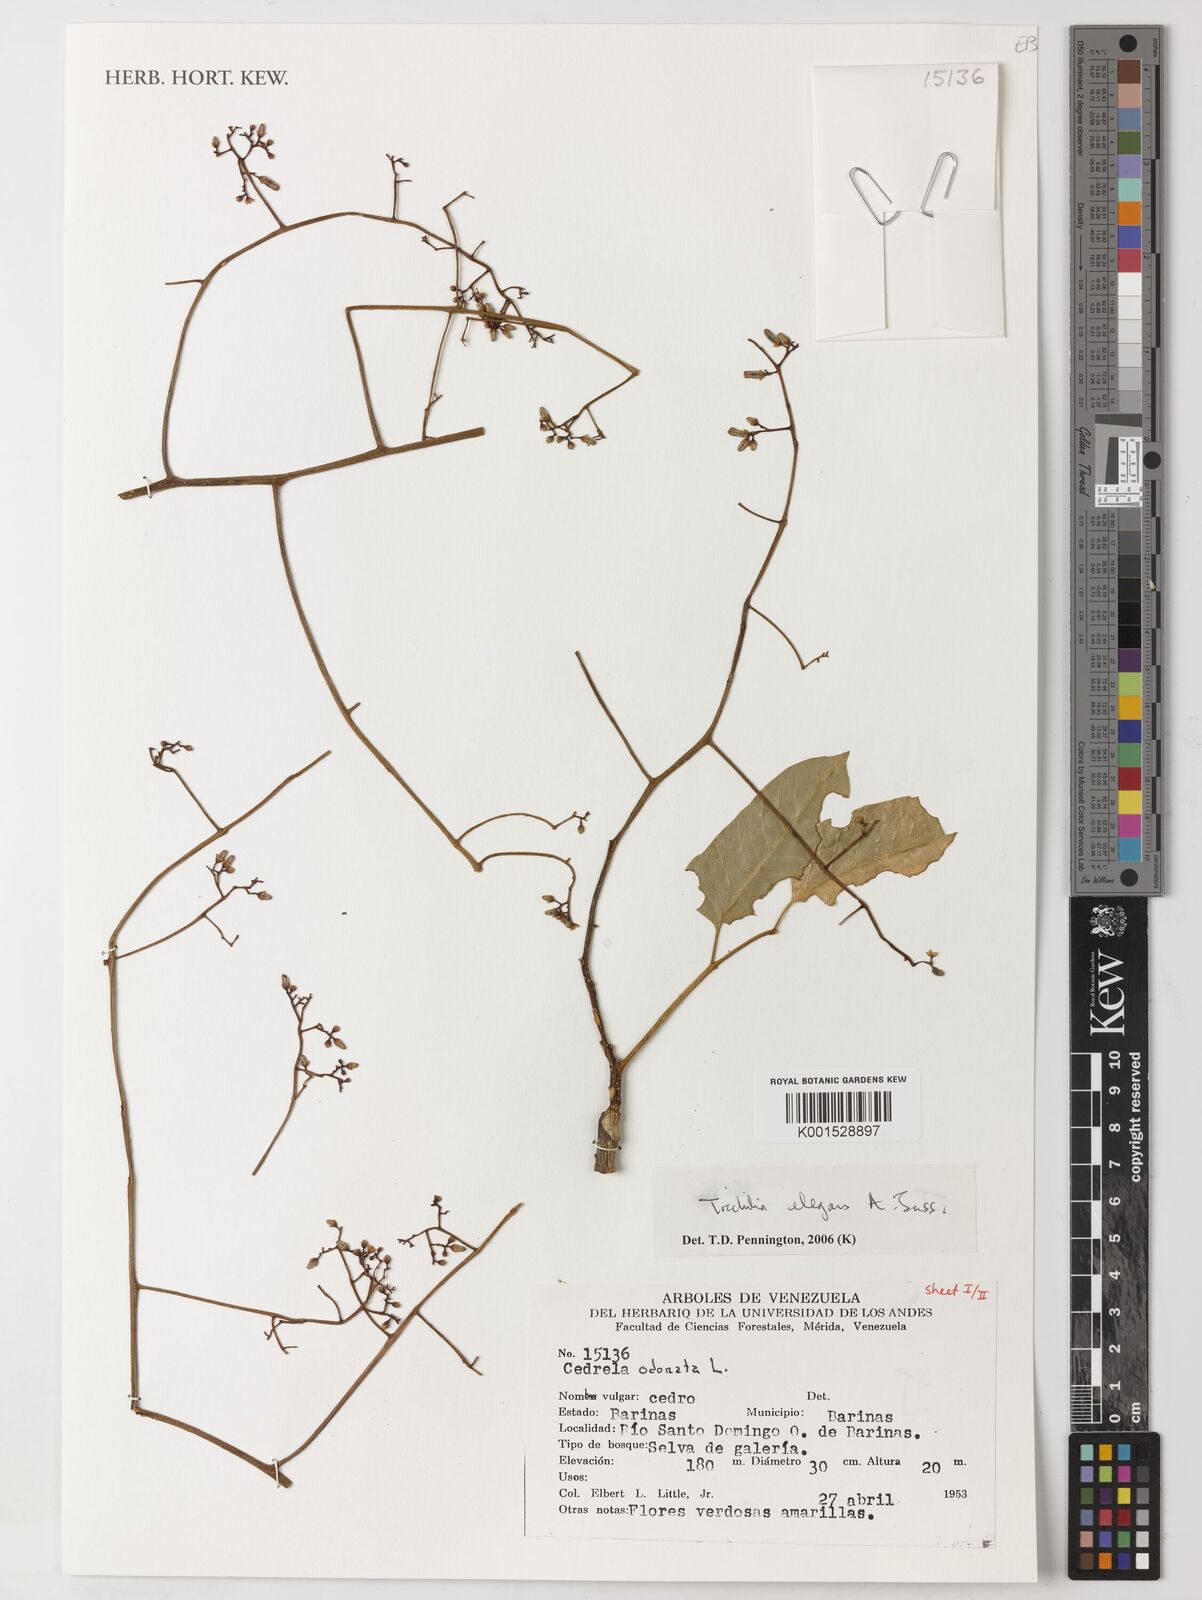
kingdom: Plantae
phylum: Tracheophyta
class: Magnoliopsida
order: Sapindales
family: Meliaceae
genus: Trichilia
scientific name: Trichilia elegans
